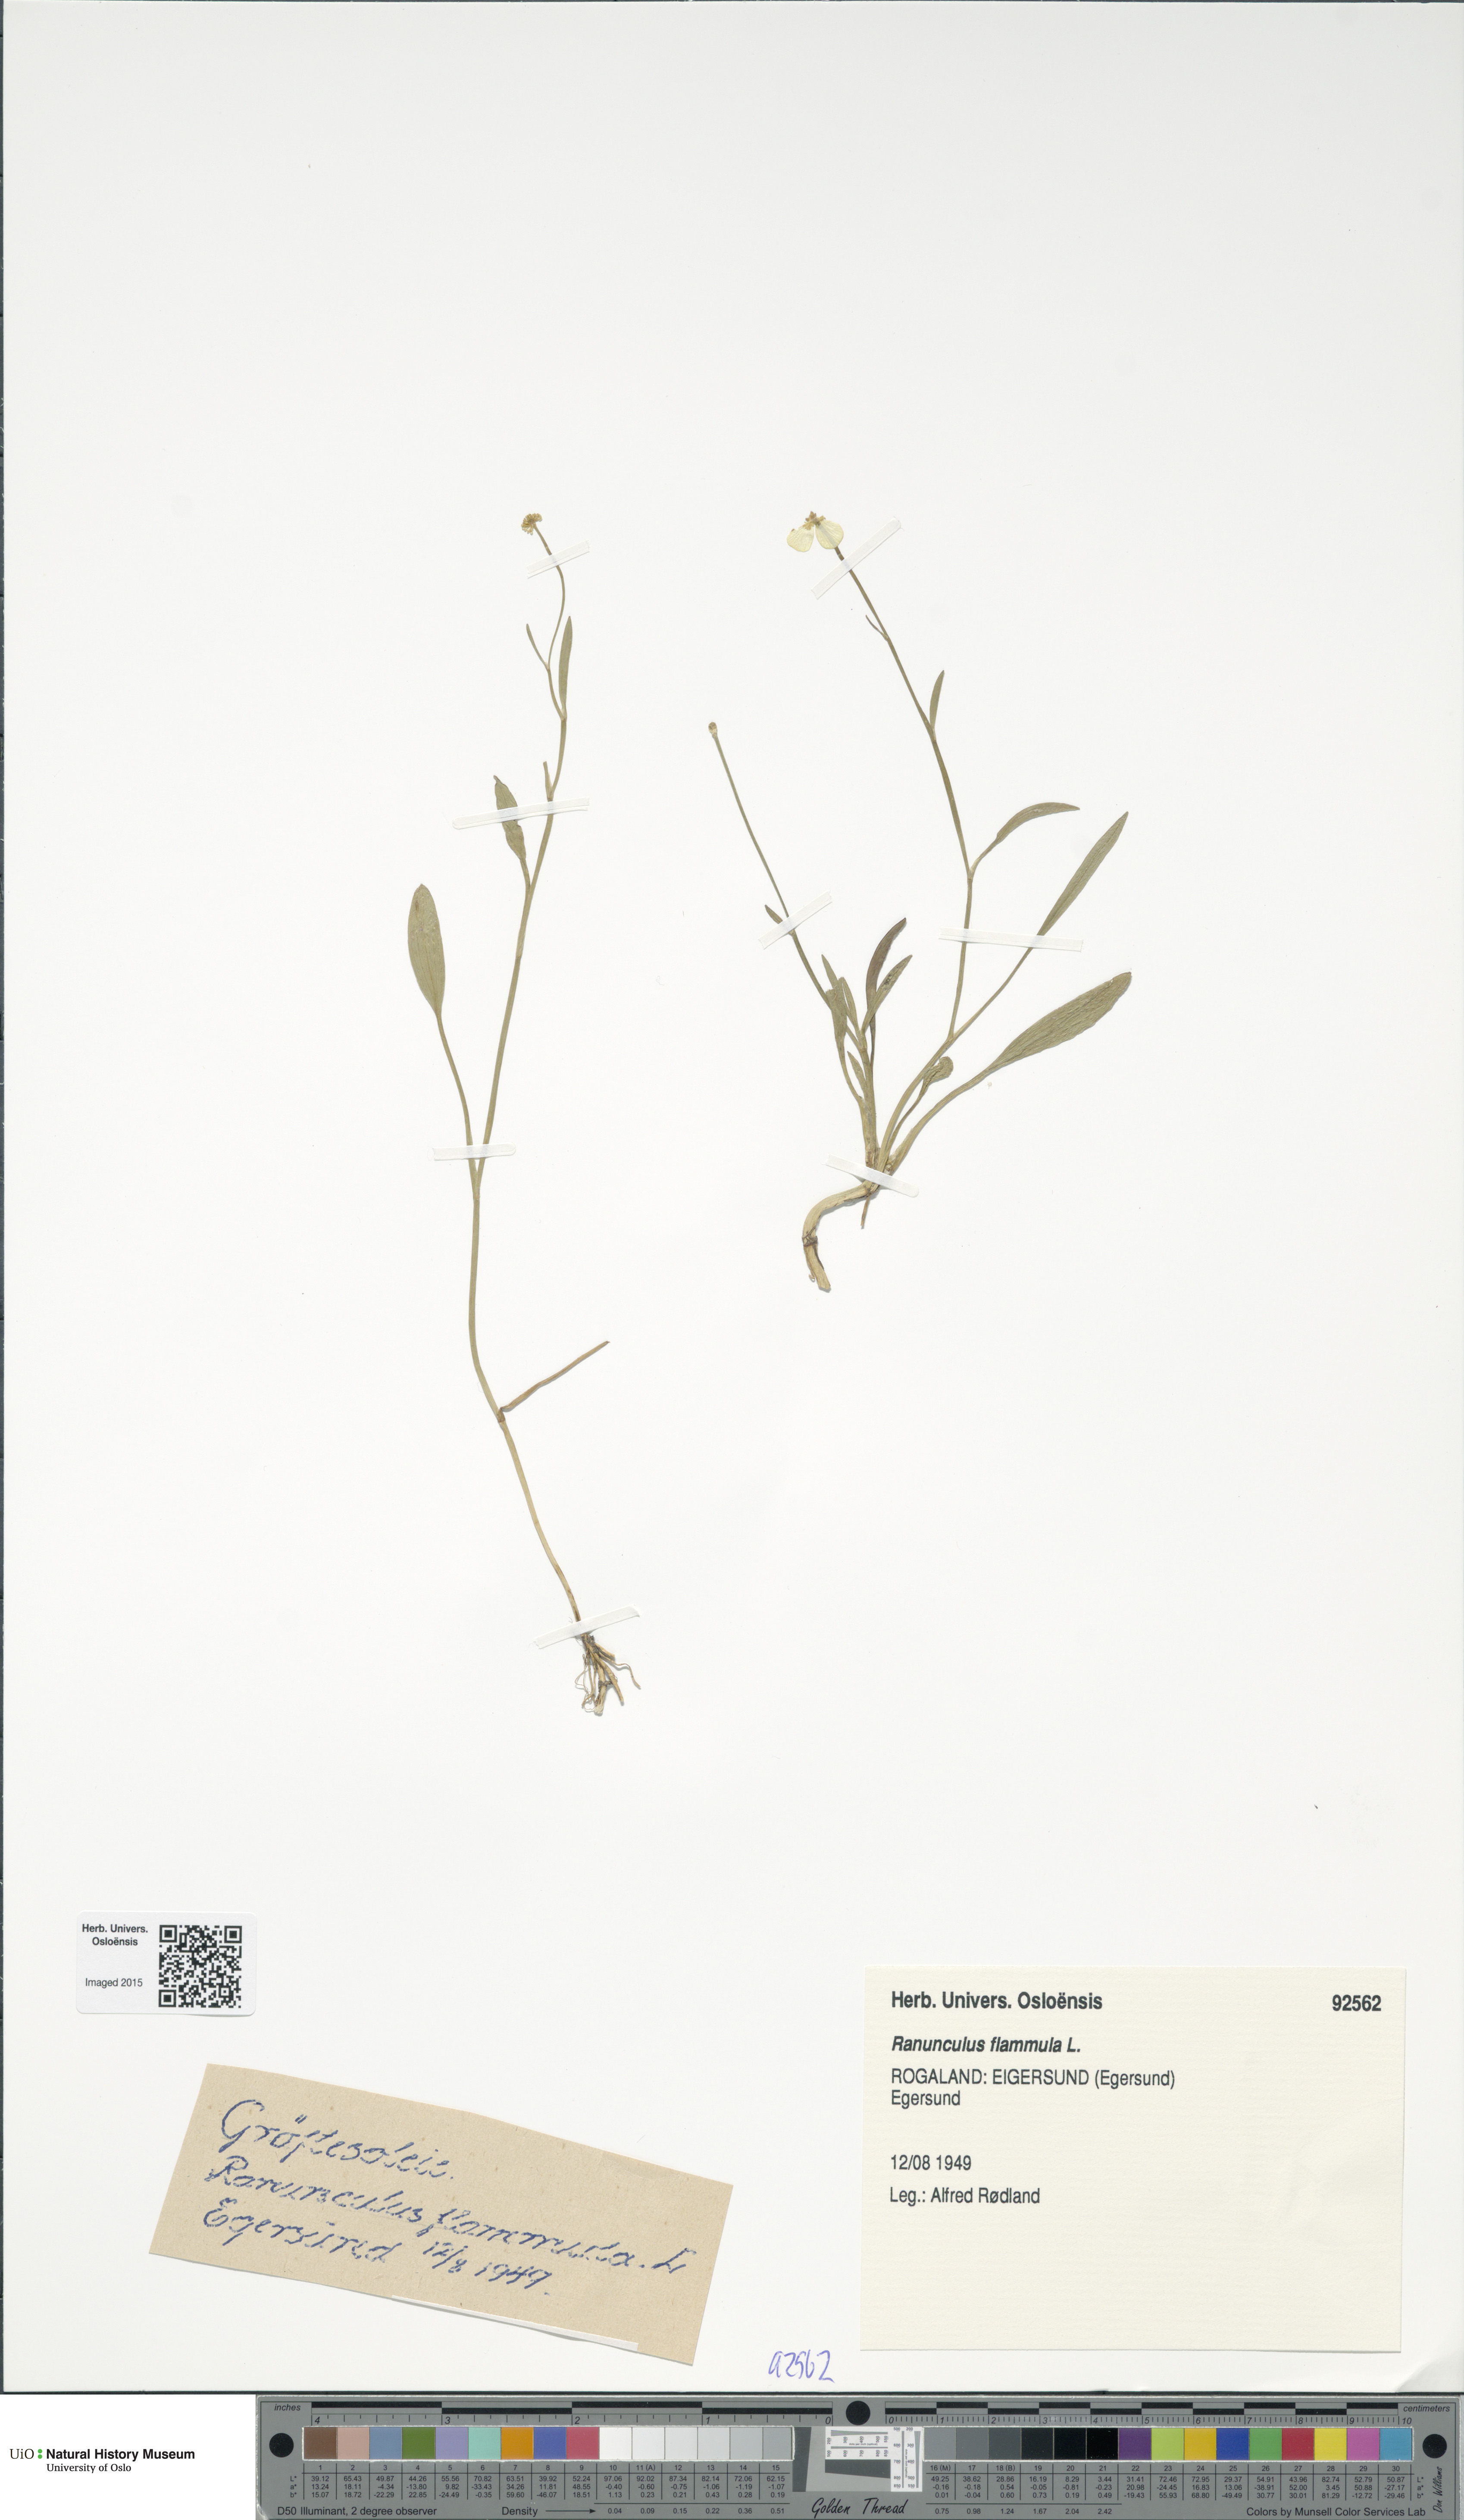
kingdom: Plantae
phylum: Tracheophyta
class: Magnoliopsida
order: Ranunculales
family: Ranunculaceae
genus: Ranunculus
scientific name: Ranunculus flammula
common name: Lesser spearwort
